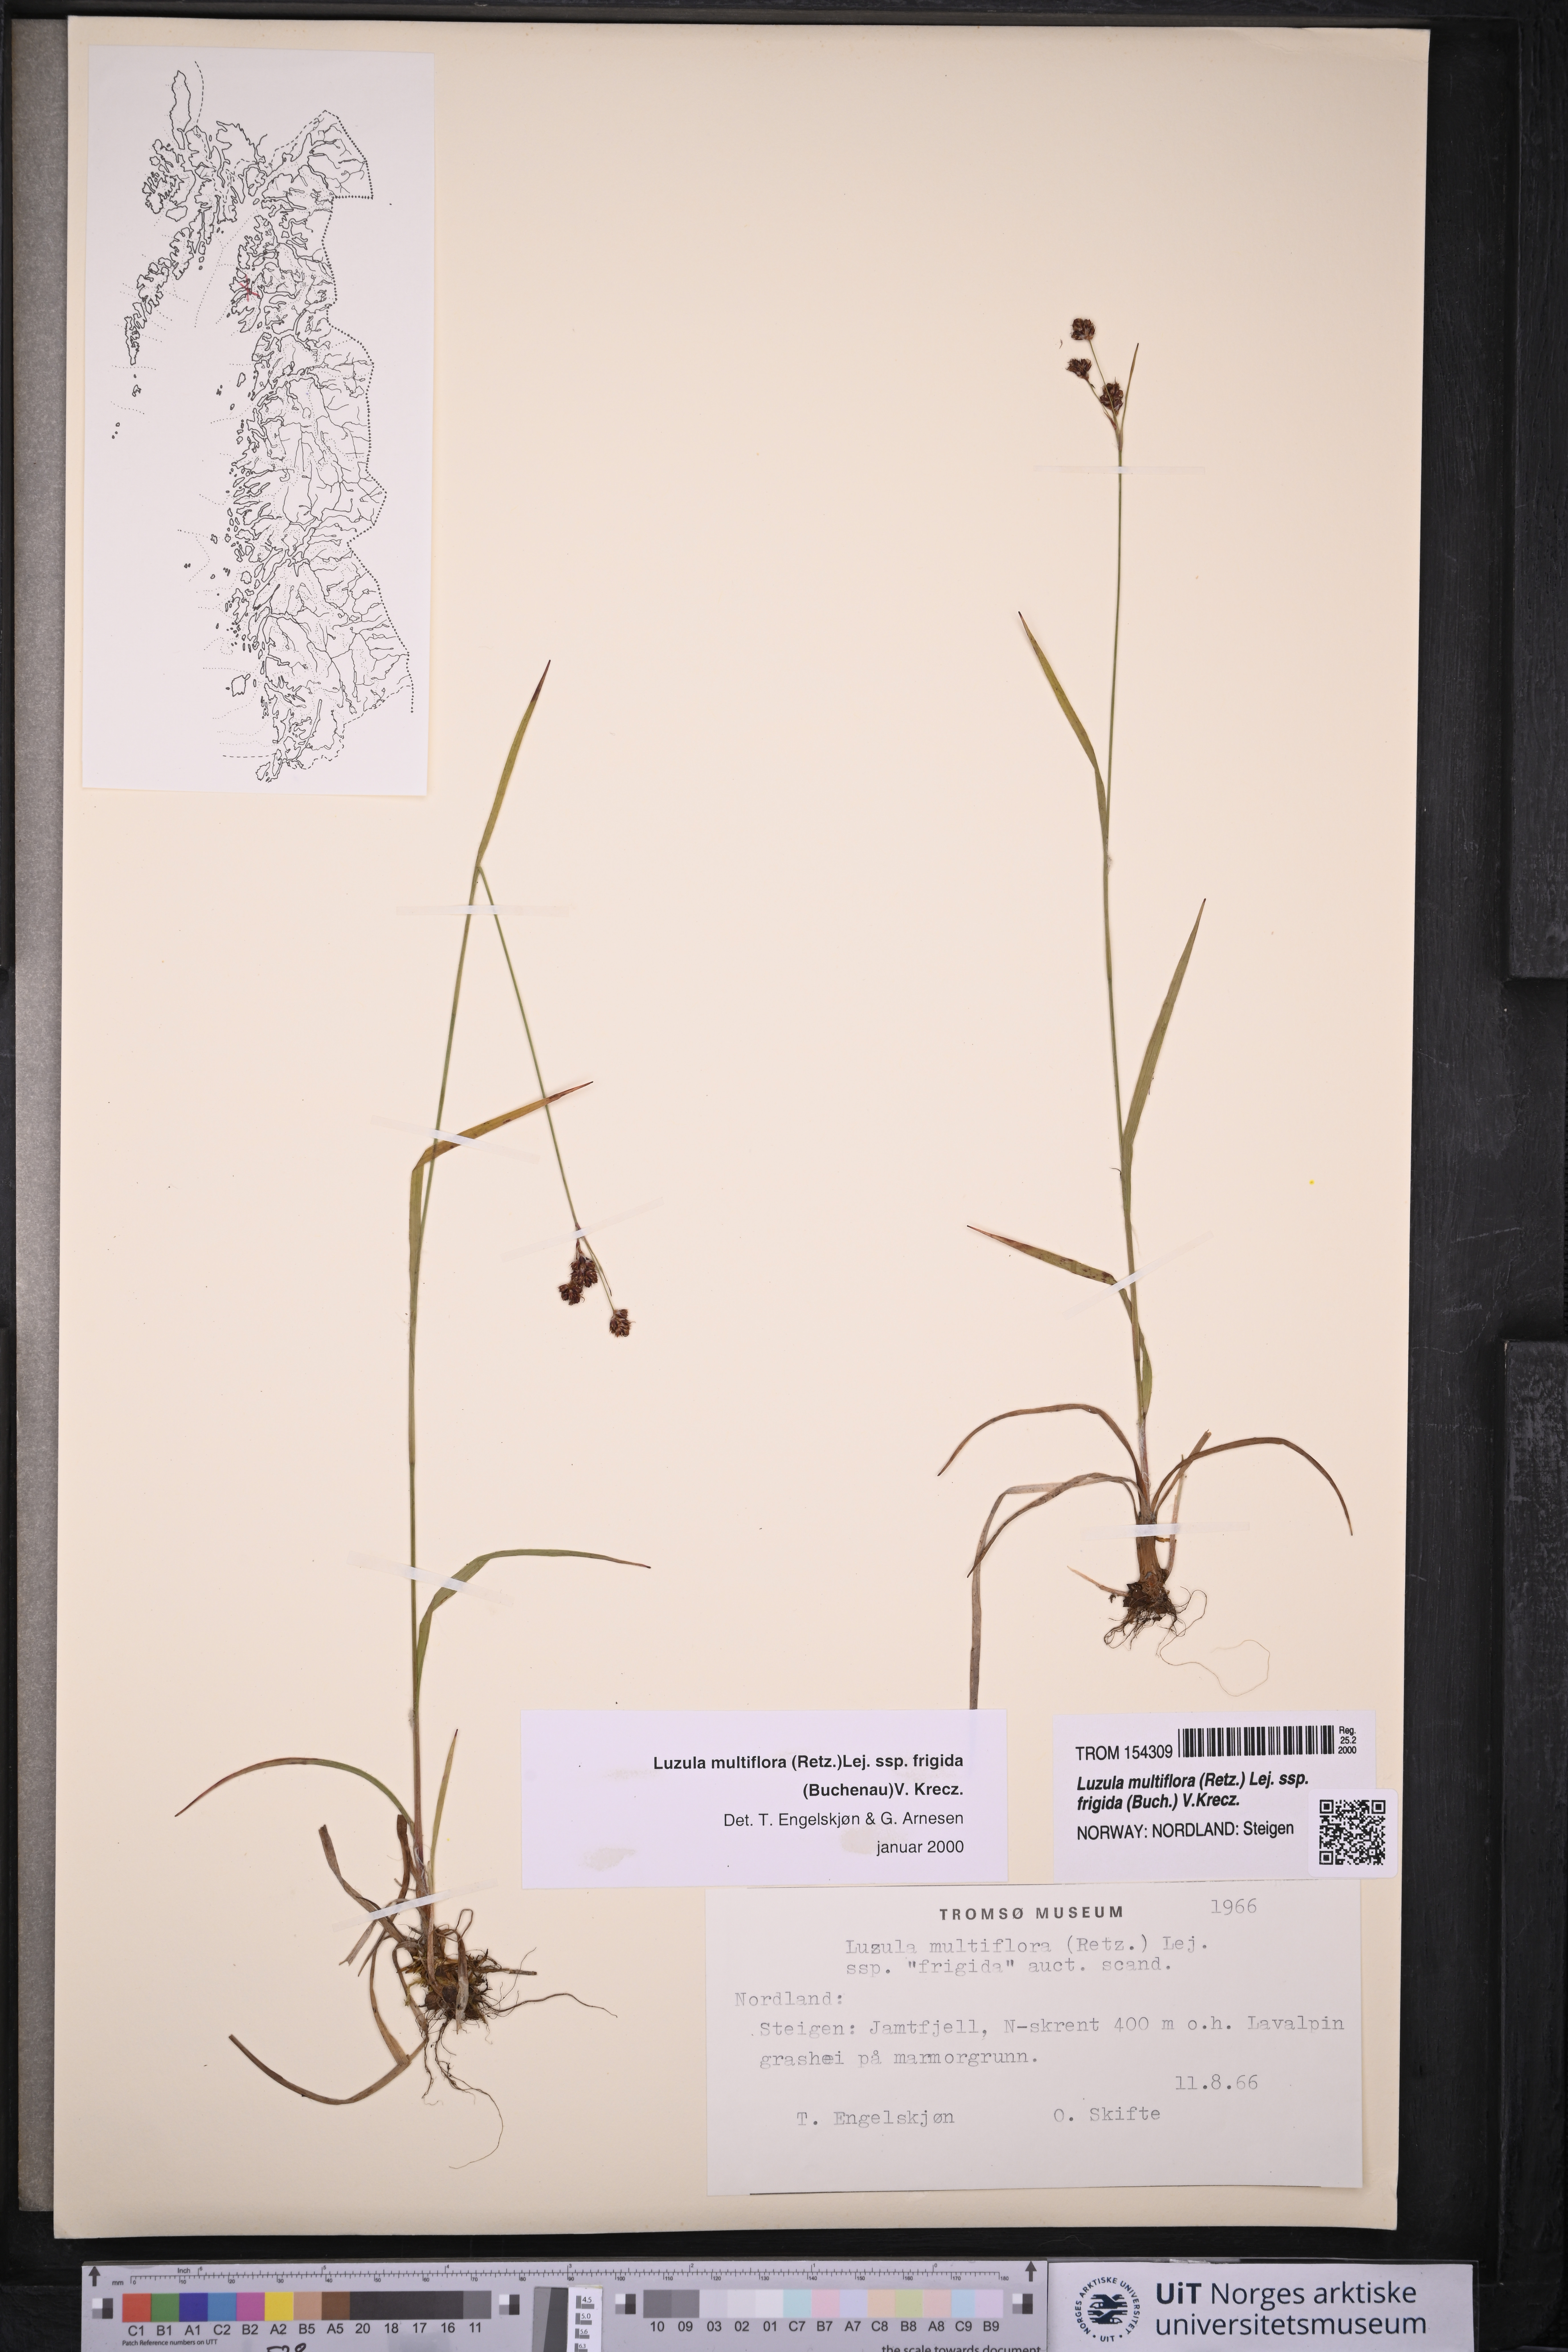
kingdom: Plantae
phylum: Tracheophyta
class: Liliopsida
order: Poales
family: Juncaceae
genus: Luzula
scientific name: Luzula multiflora
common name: Heath wood-rush
